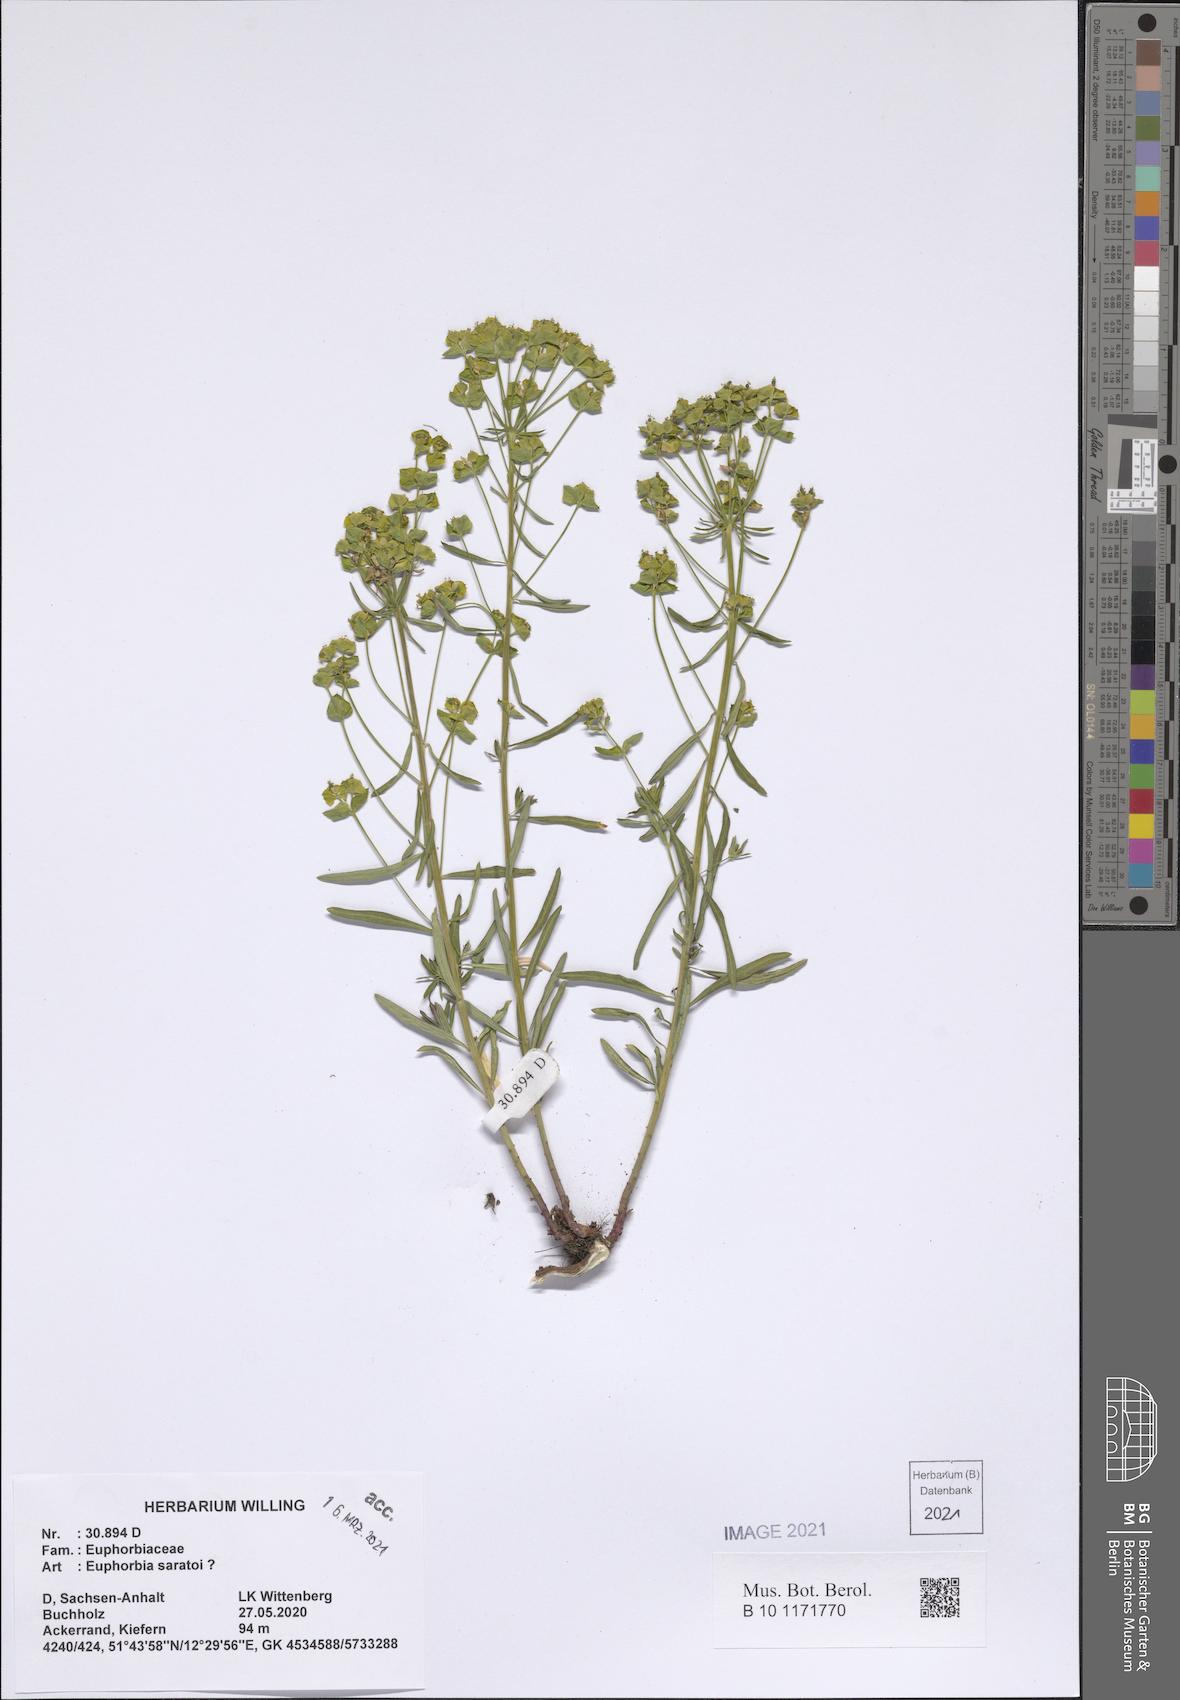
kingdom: Plantae
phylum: Tracheophyta
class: Magnoliopsida
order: Malpighiales
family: Euphorbiaceae
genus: Euphorbia
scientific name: Euphorbia saratoi
